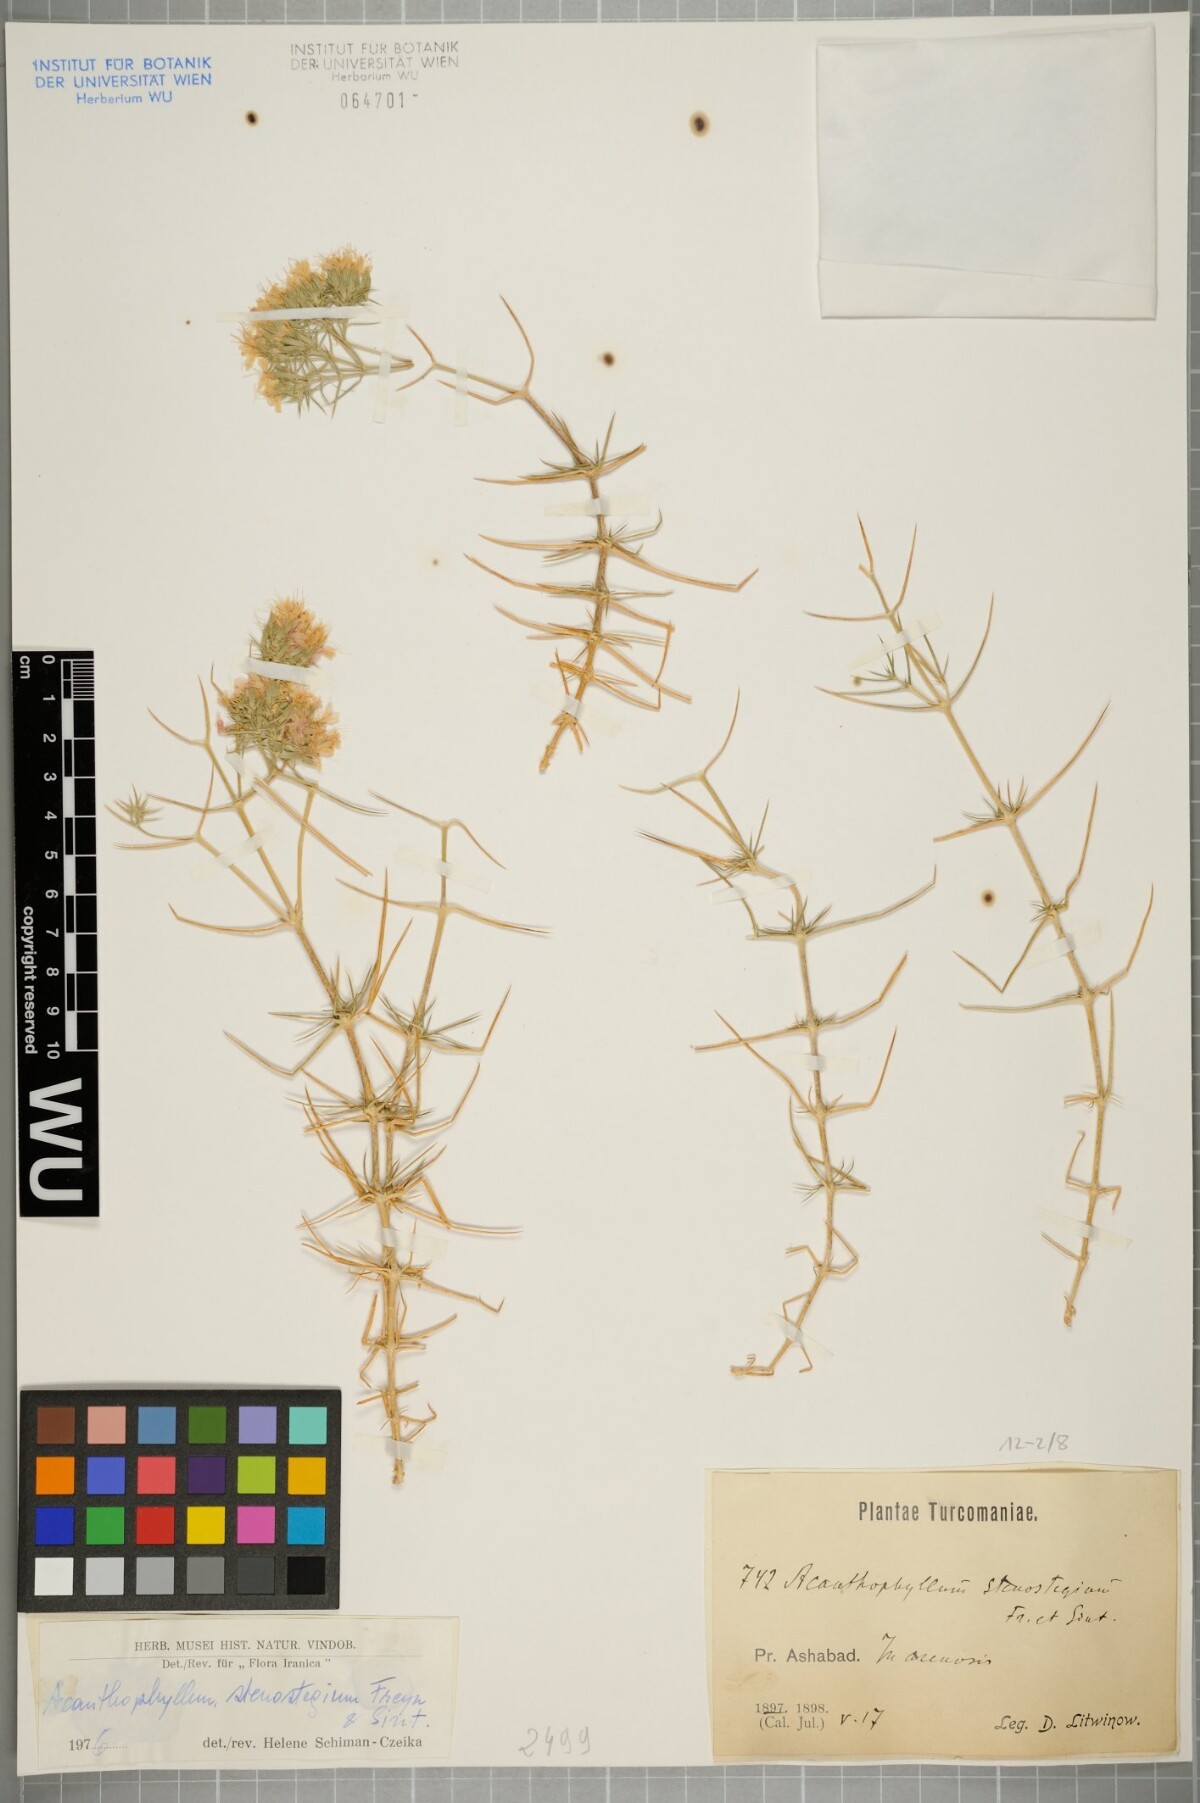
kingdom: Plantae
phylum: Tracheophyta
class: Magnoliopsida
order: Caryophyllales
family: Caryophyllaceae
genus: Acanthophyllum
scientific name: Acanthophyllum stenostegium
